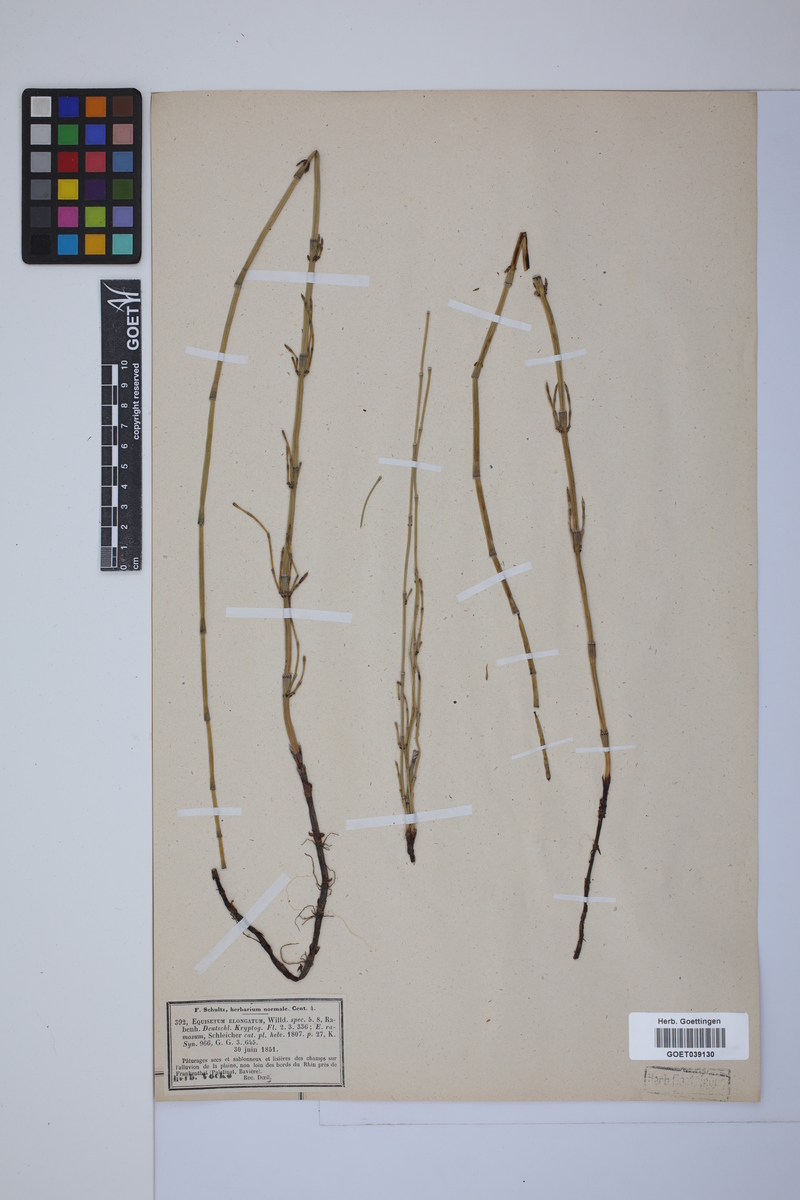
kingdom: Plantae
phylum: Tracheophyta
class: Polypodiopsida
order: Equisetales
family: Equisetaceae
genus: Equisetum
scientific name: Equisetum giganteum
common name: Giant horsetail
